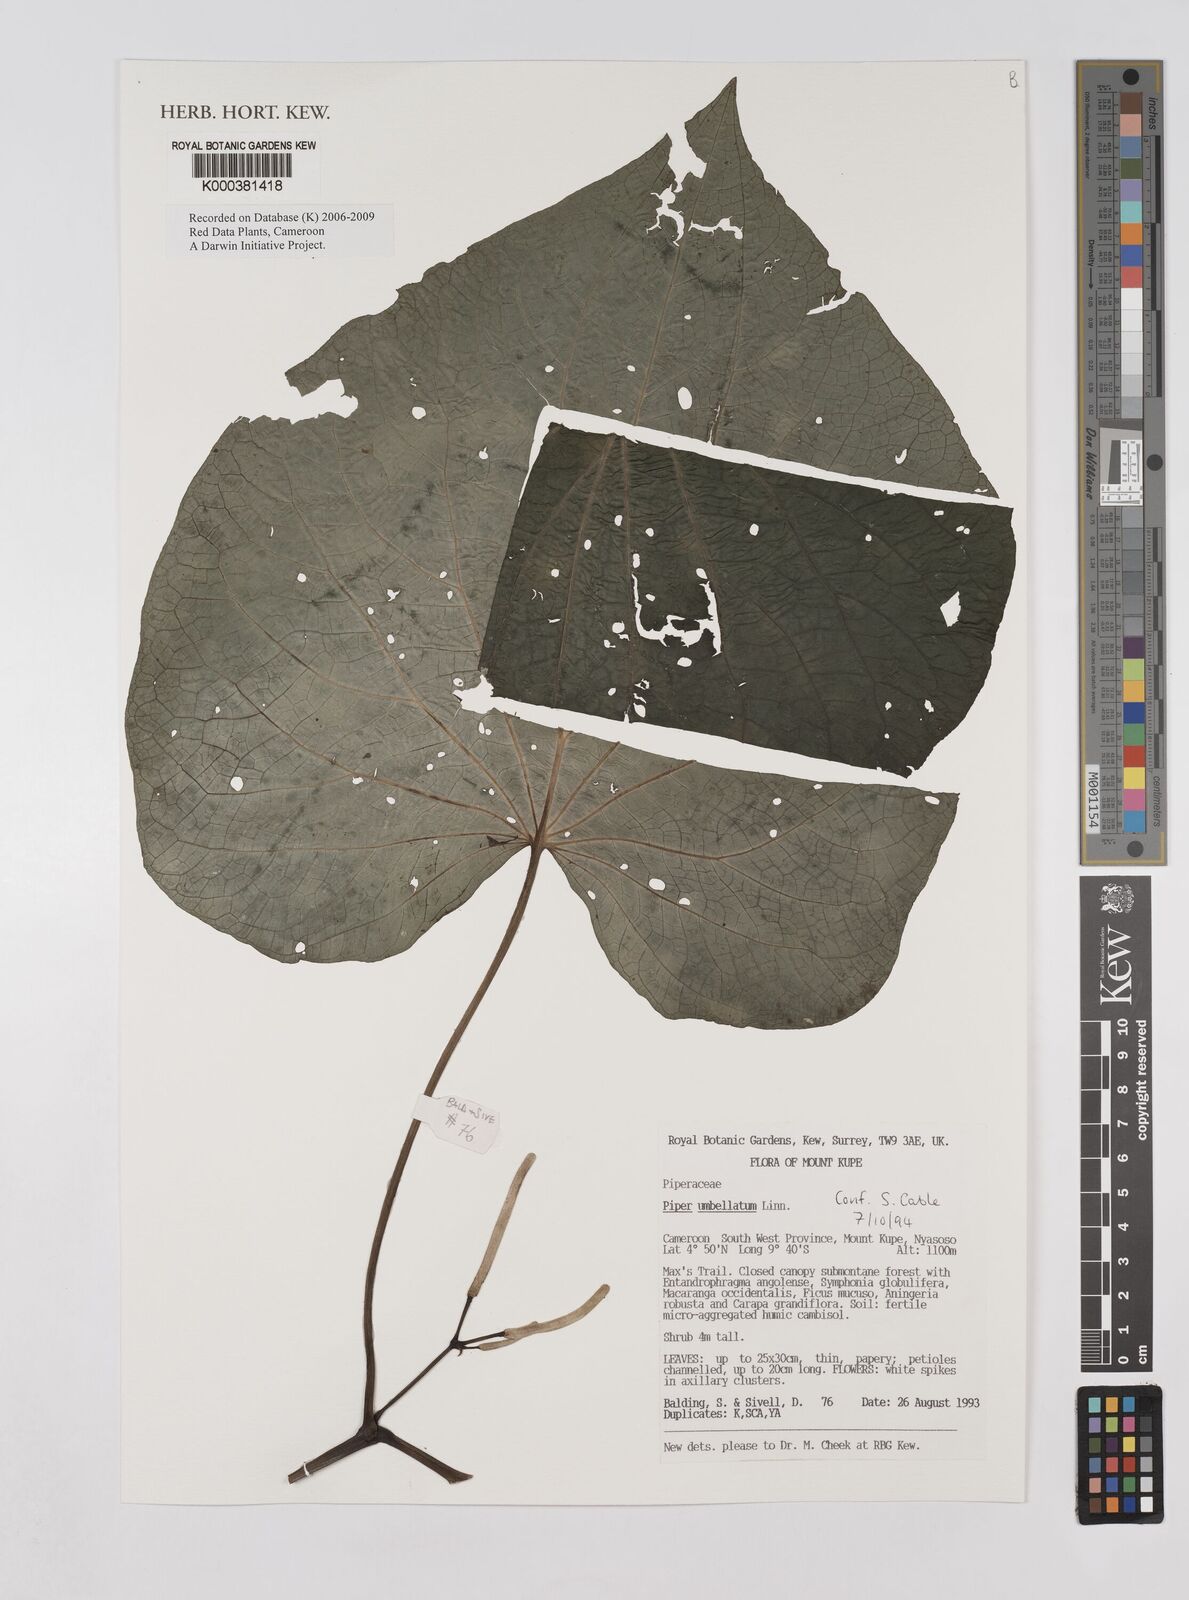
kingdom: Plantae
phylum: Tracheophyta
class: Magnoliopsida
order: Piperales
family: Piperaceae
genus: Piper
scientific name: Piper umbellatum
